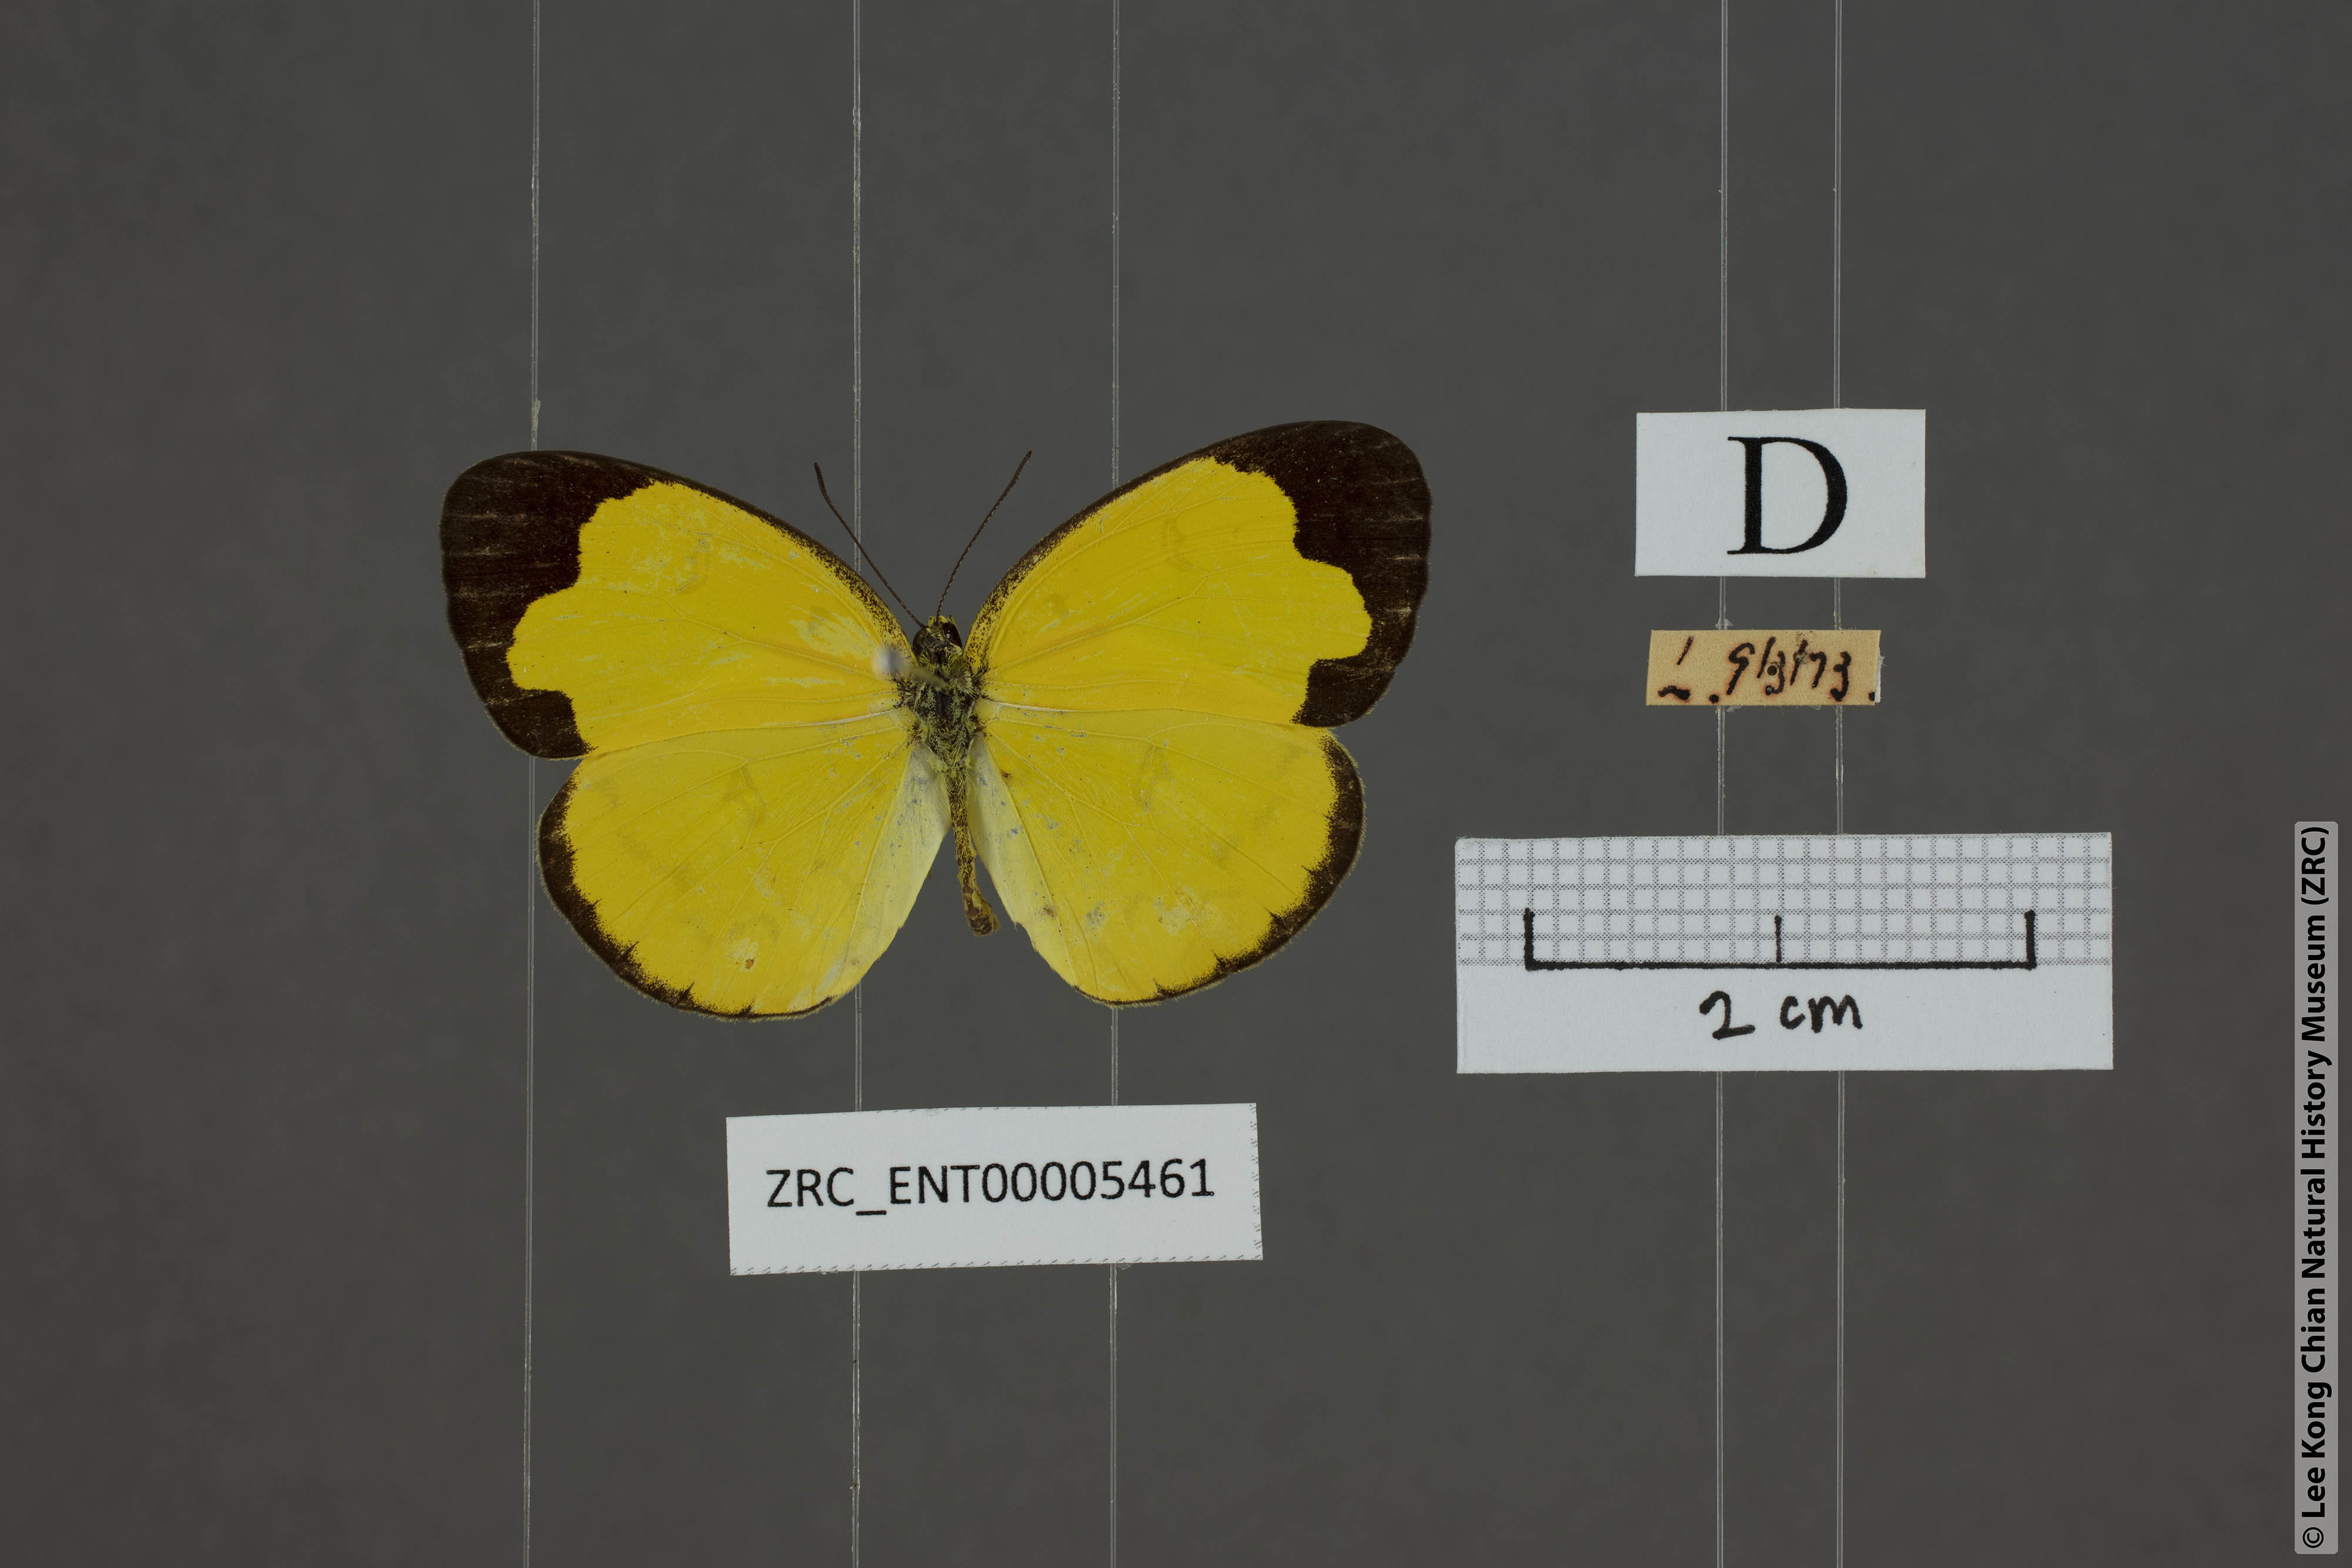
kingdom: Animalia
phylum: Arthropoda
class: Insecta
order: Lepidoptera
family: Pieridae
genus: Eurema
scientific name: Eurema sari
